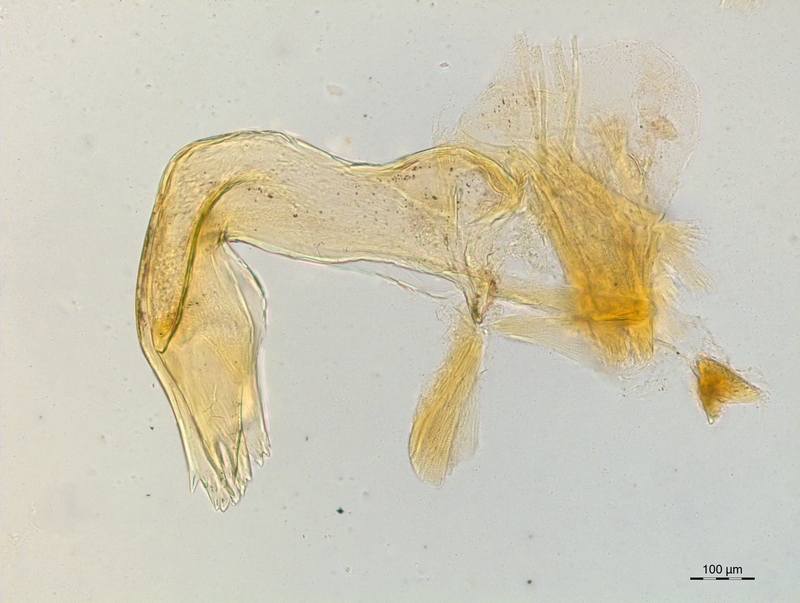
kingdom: Animalia
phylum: Arthropoda
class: Diplopoda
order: Chordeumatida
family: Craspedosomatidae
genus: Craspedosoma
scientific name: Craspedosoma furculigerum
